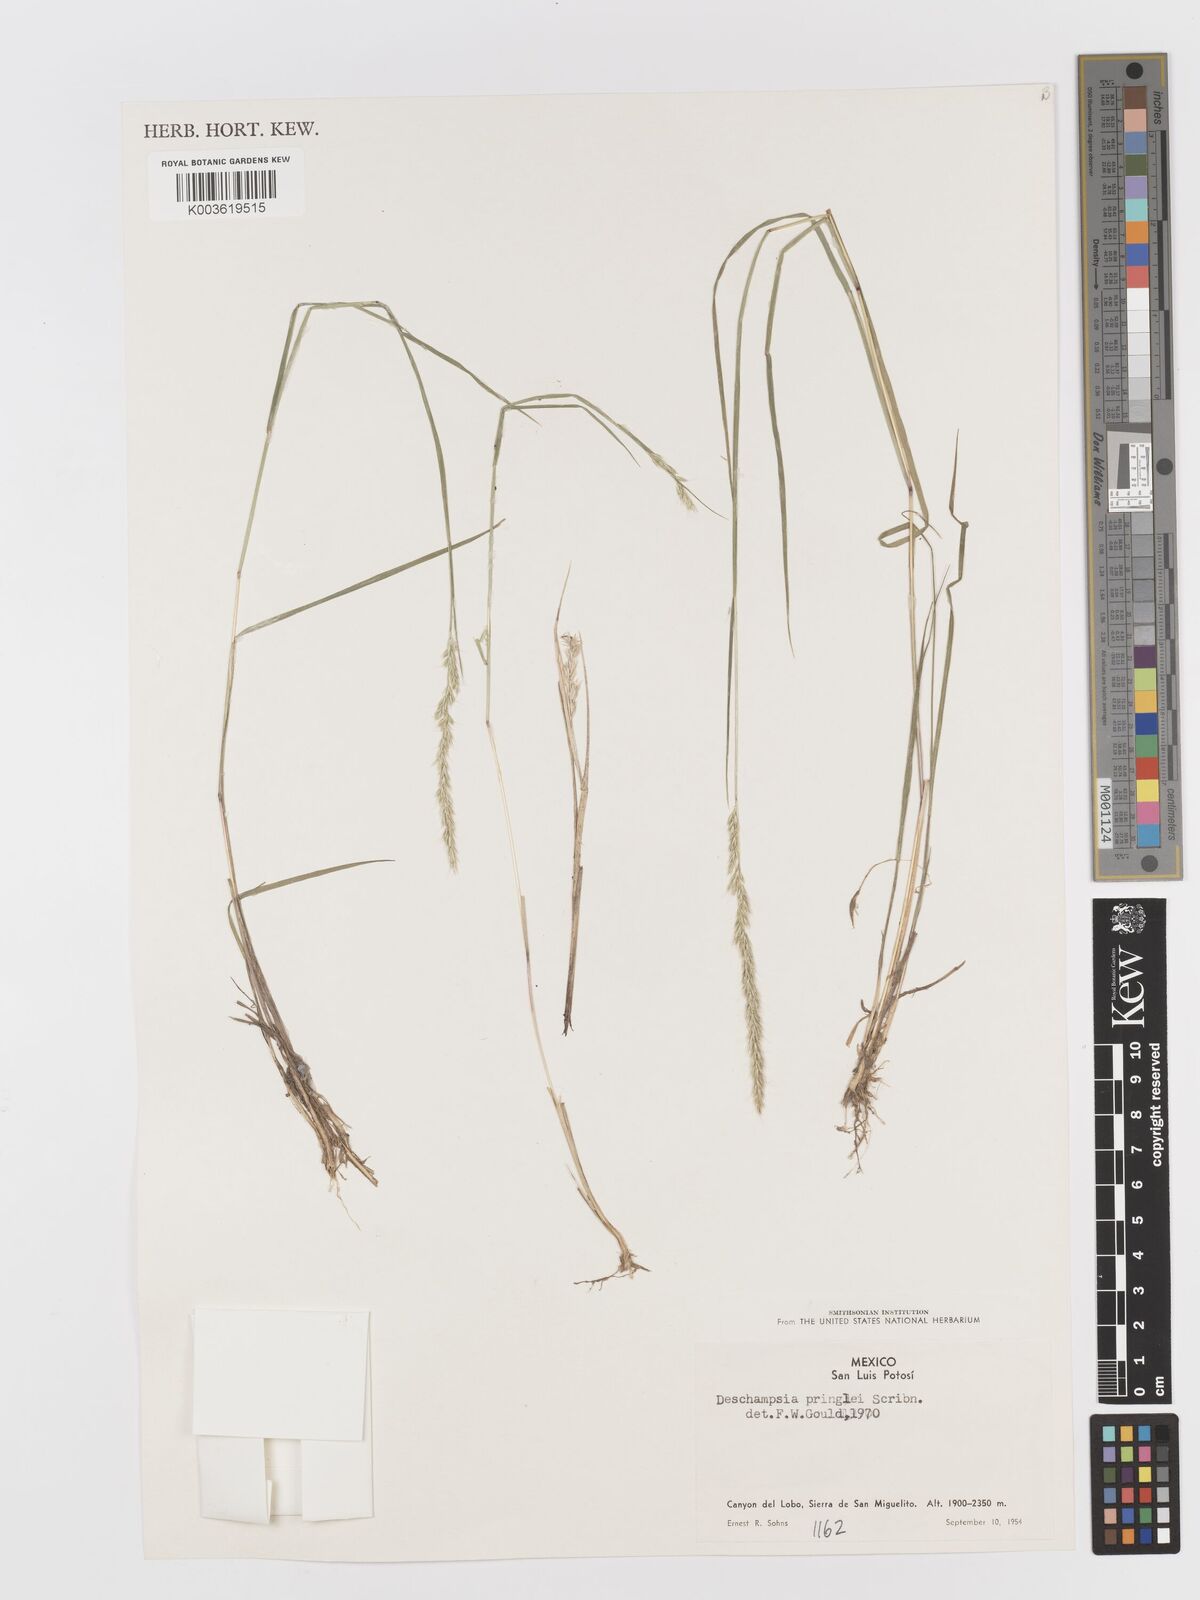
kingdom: Plantae
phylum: Tracheophyta
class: Liliopsida
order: Poales
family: Poaceae
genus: Peyritschia
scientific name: Peyritschia pringlei
